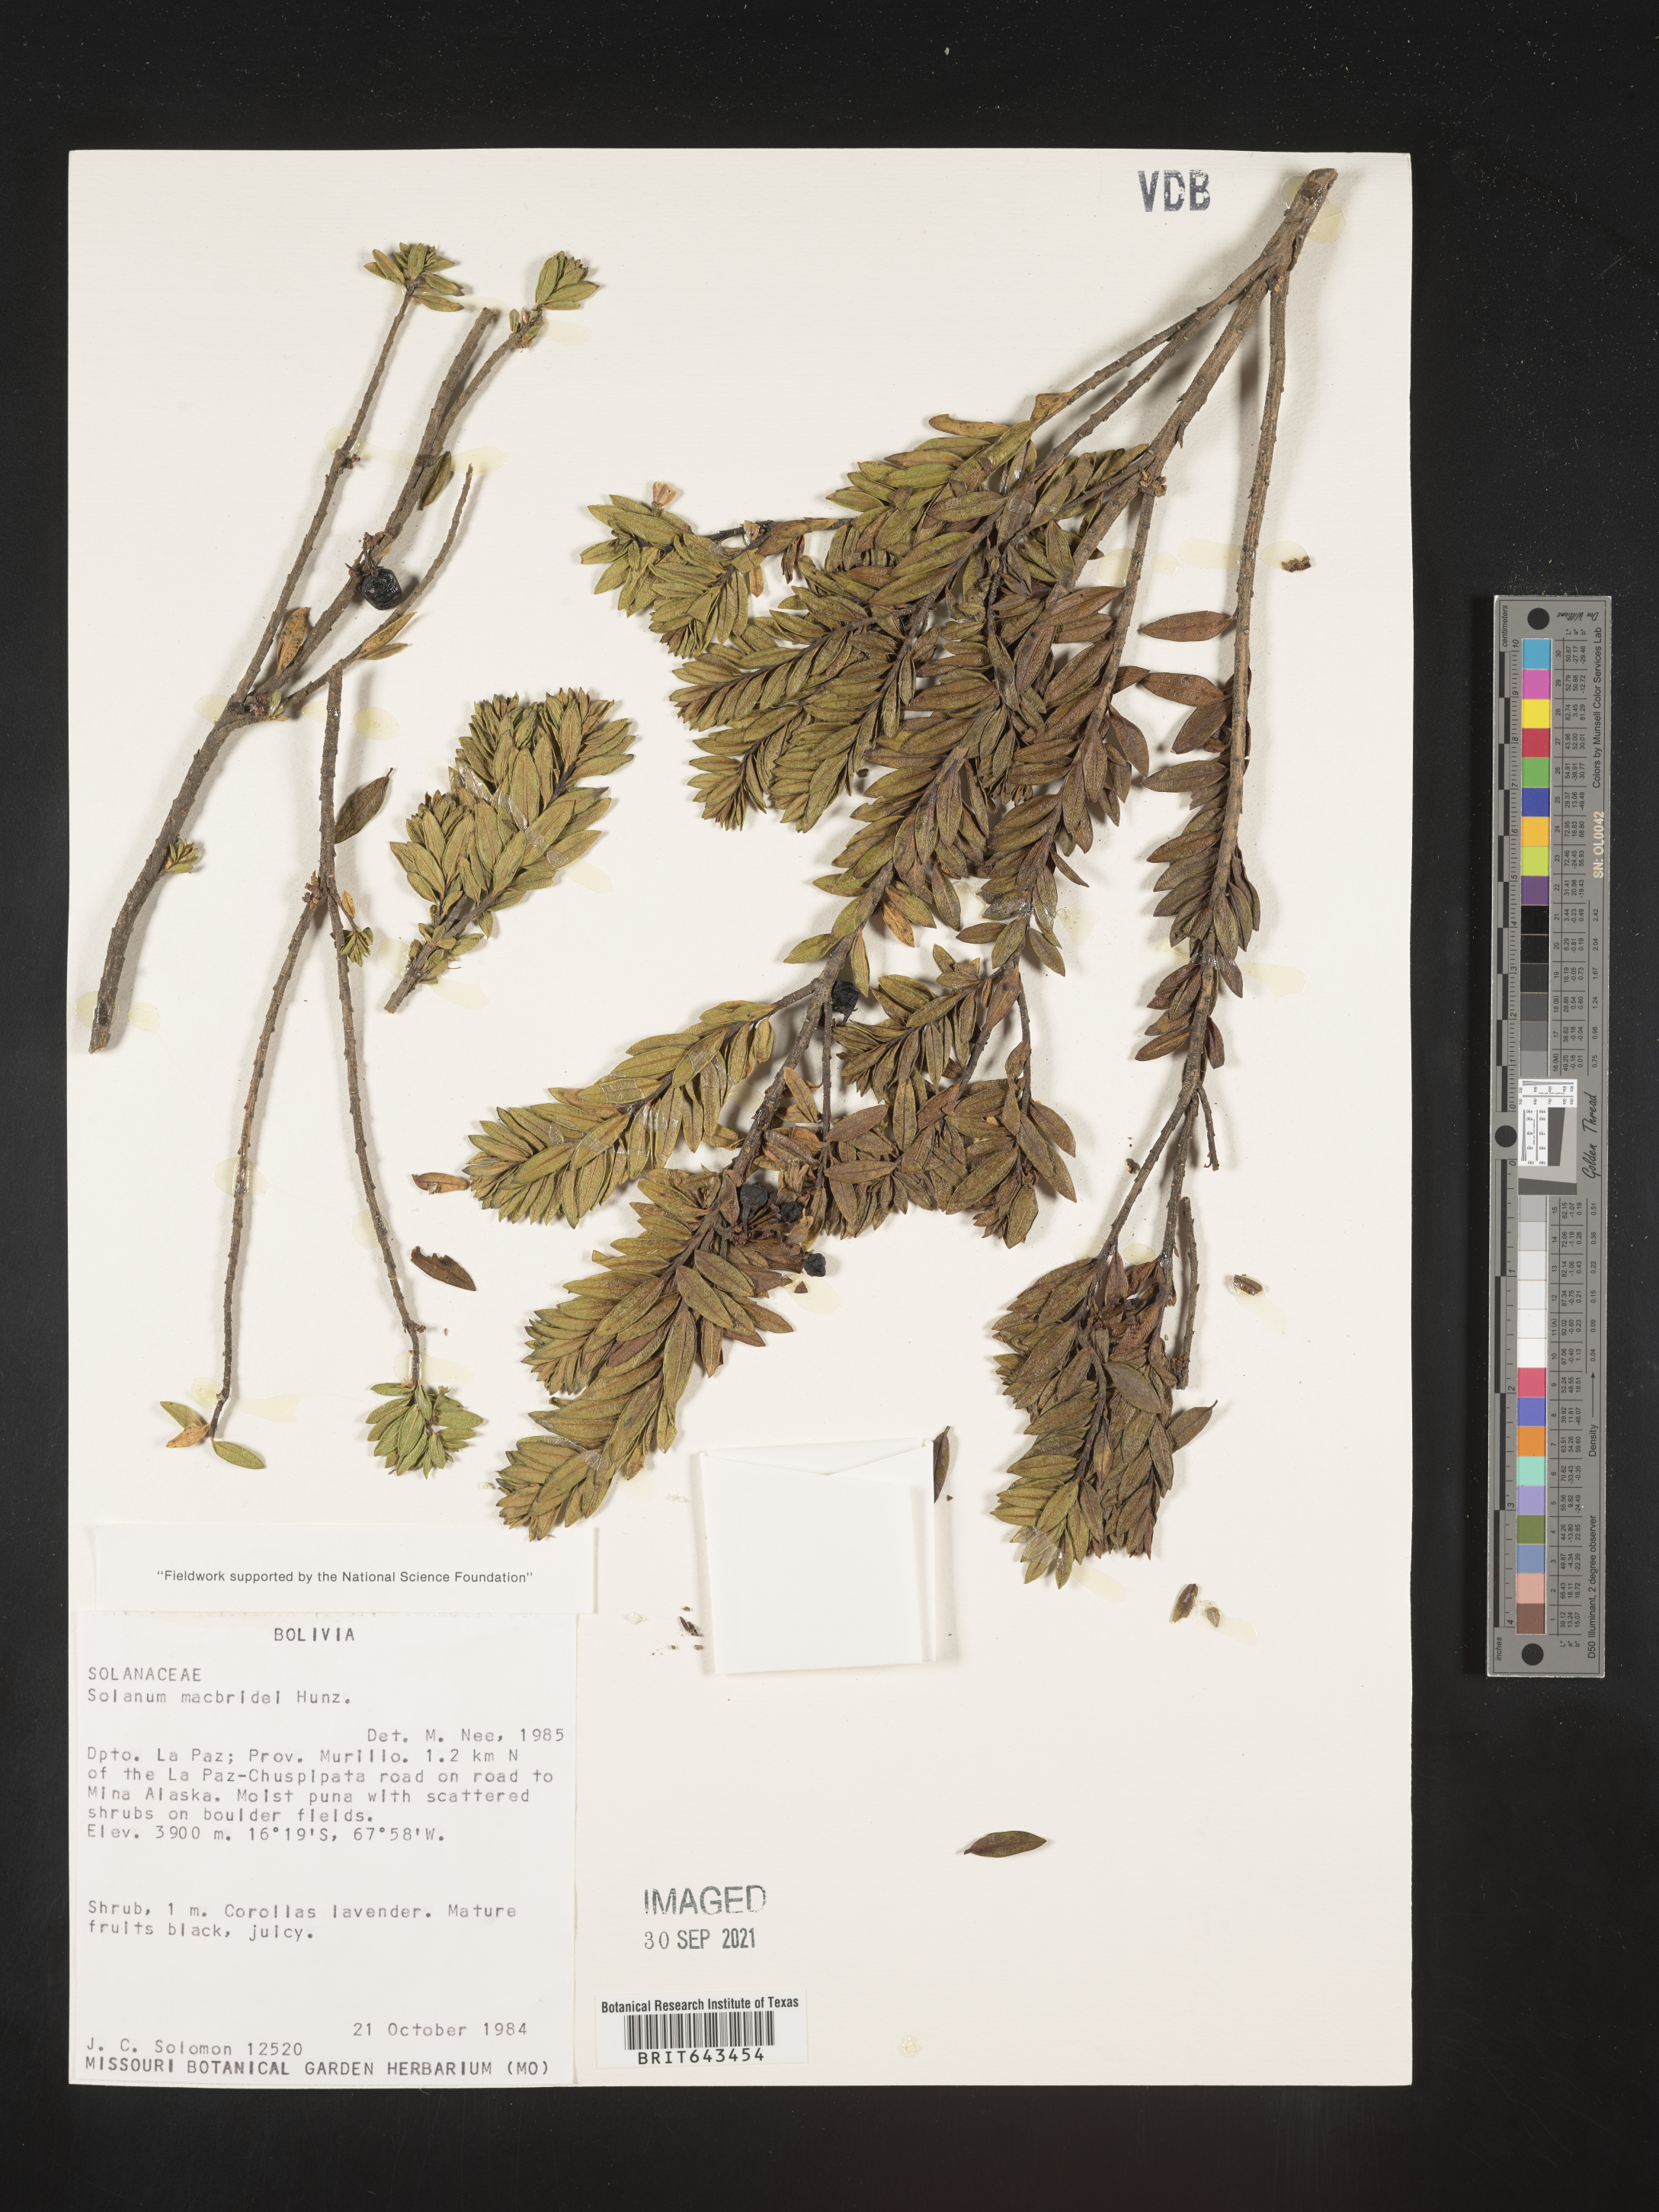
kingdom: Plantae
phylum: Tracheophyta
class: Magnoliopsida
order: Solanales
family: Solanaceae
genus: Solanum
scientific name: Solanum
